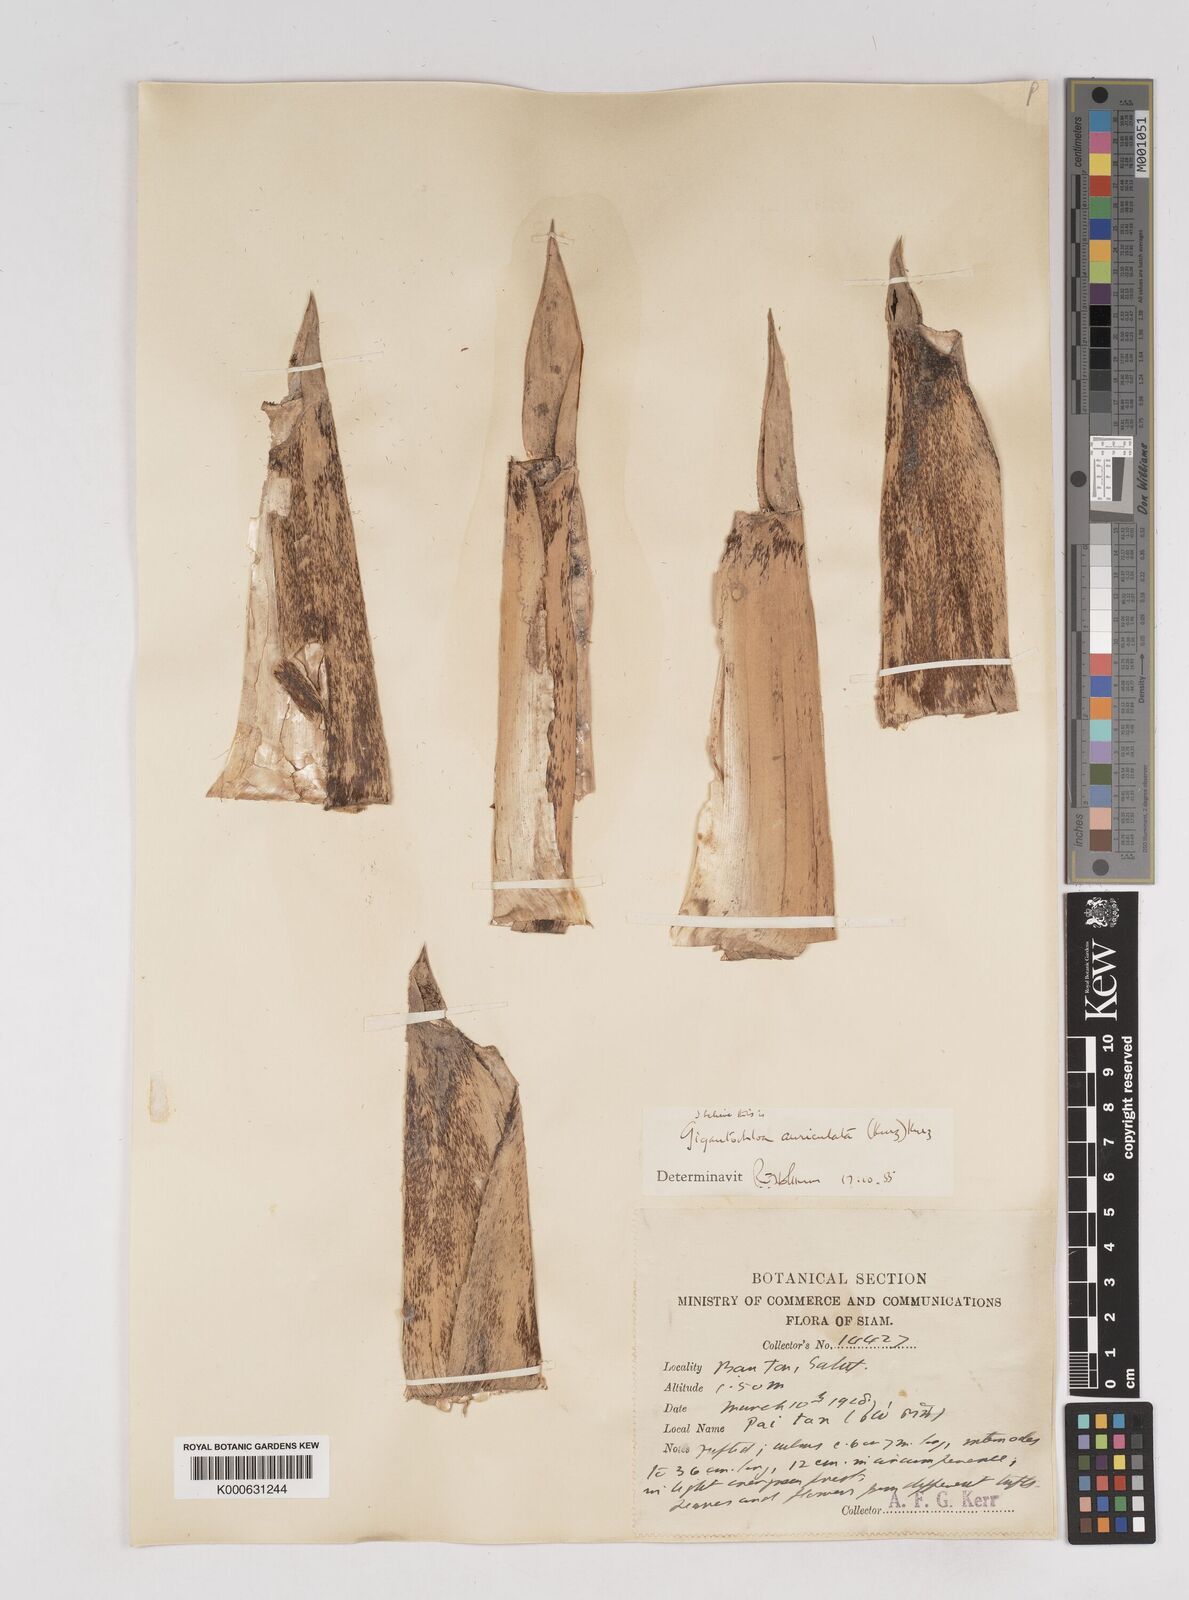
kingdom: Plantae
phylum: Tracheophyta
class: Liliopsida
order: Poales
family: Poaceae
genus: Gigantochloa
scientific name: Gigantochloa
